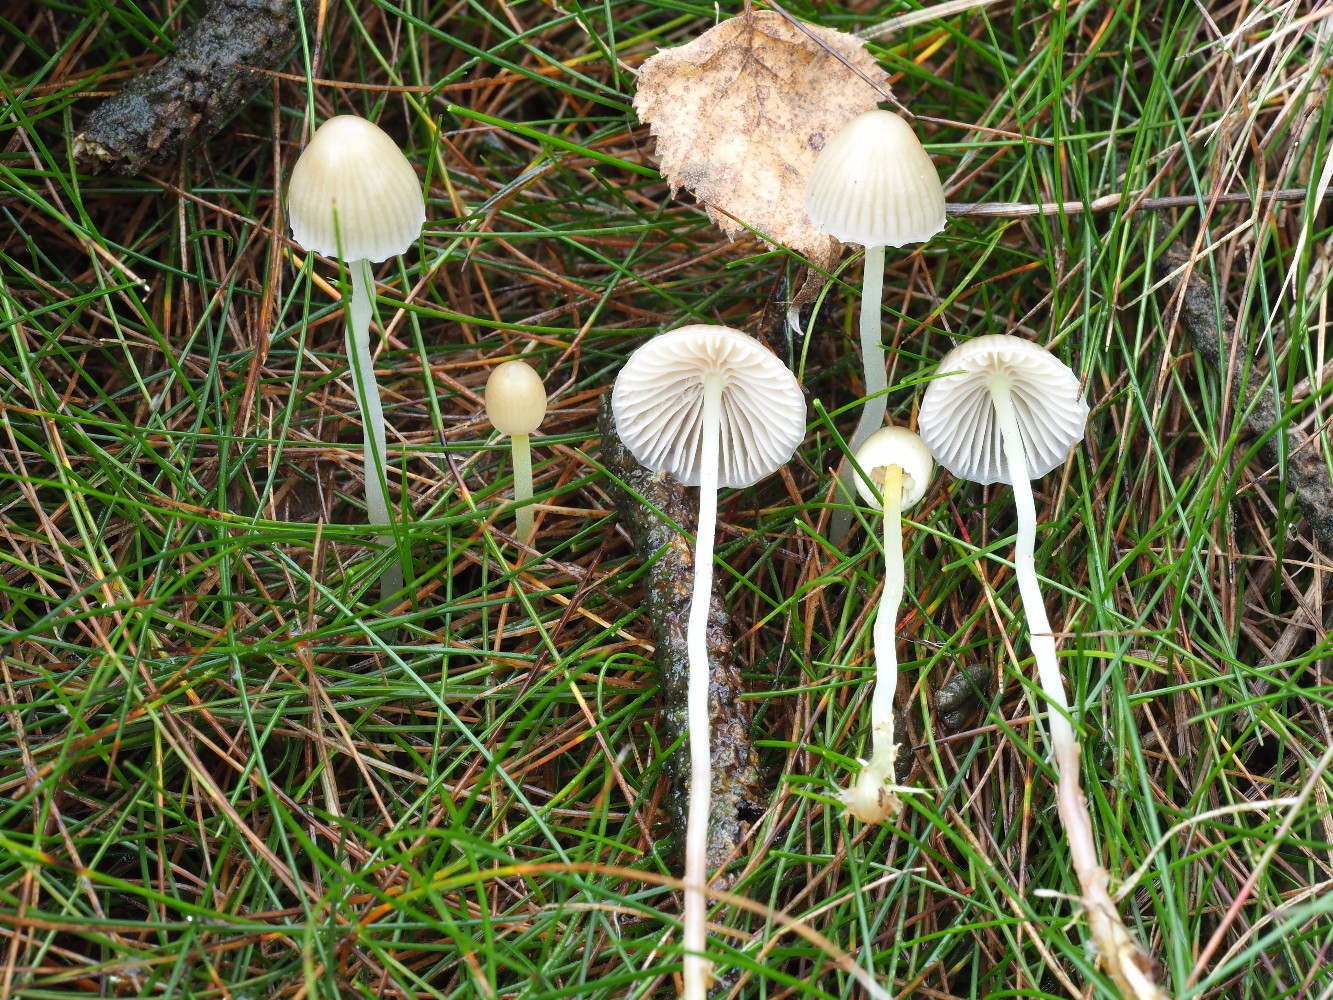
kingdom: Fungi
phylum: Basidiomycota
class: Agaricomycetes
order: Agaricales
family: Mycenaceae
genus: Mycena
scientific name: Mycena epipterygia
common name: gulstokket huesvamp
